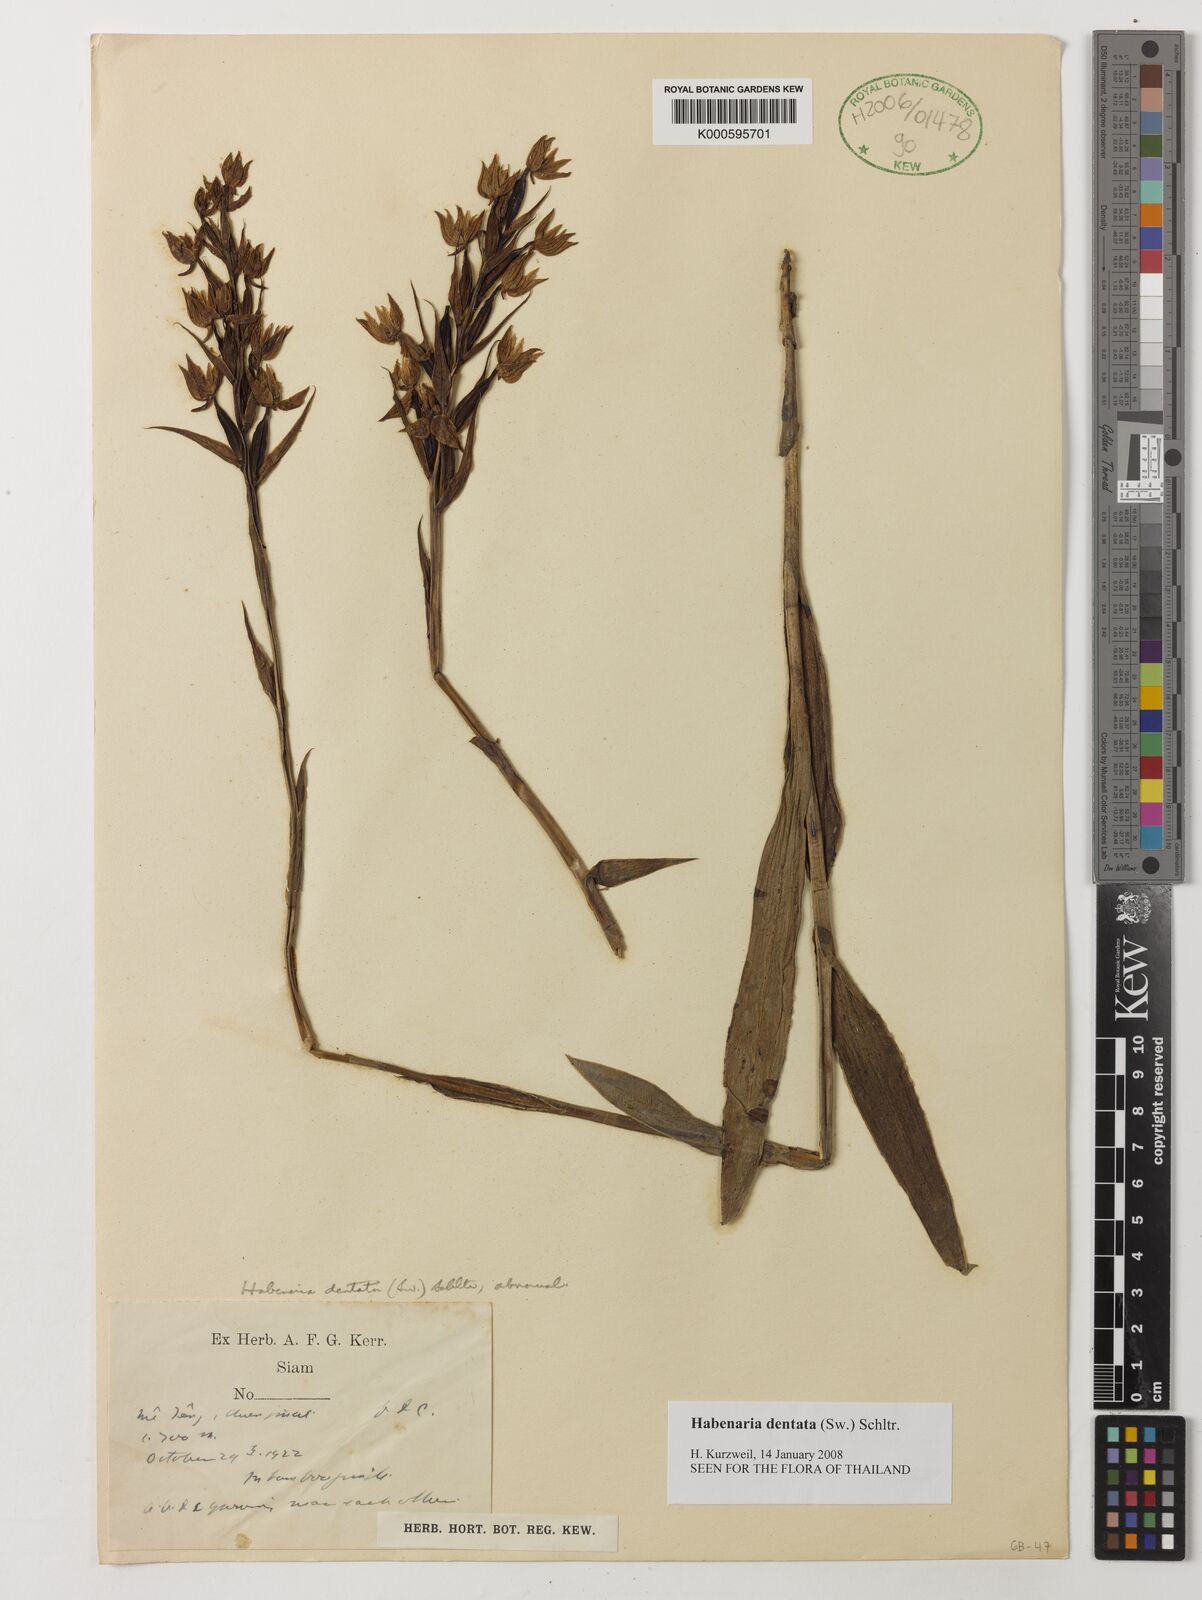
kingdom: Plantae
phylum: Tracheophyta
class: Liliopsida
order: Asparagales
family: Orchidaceae
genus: Habenaria
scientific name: Habenaria dentata
